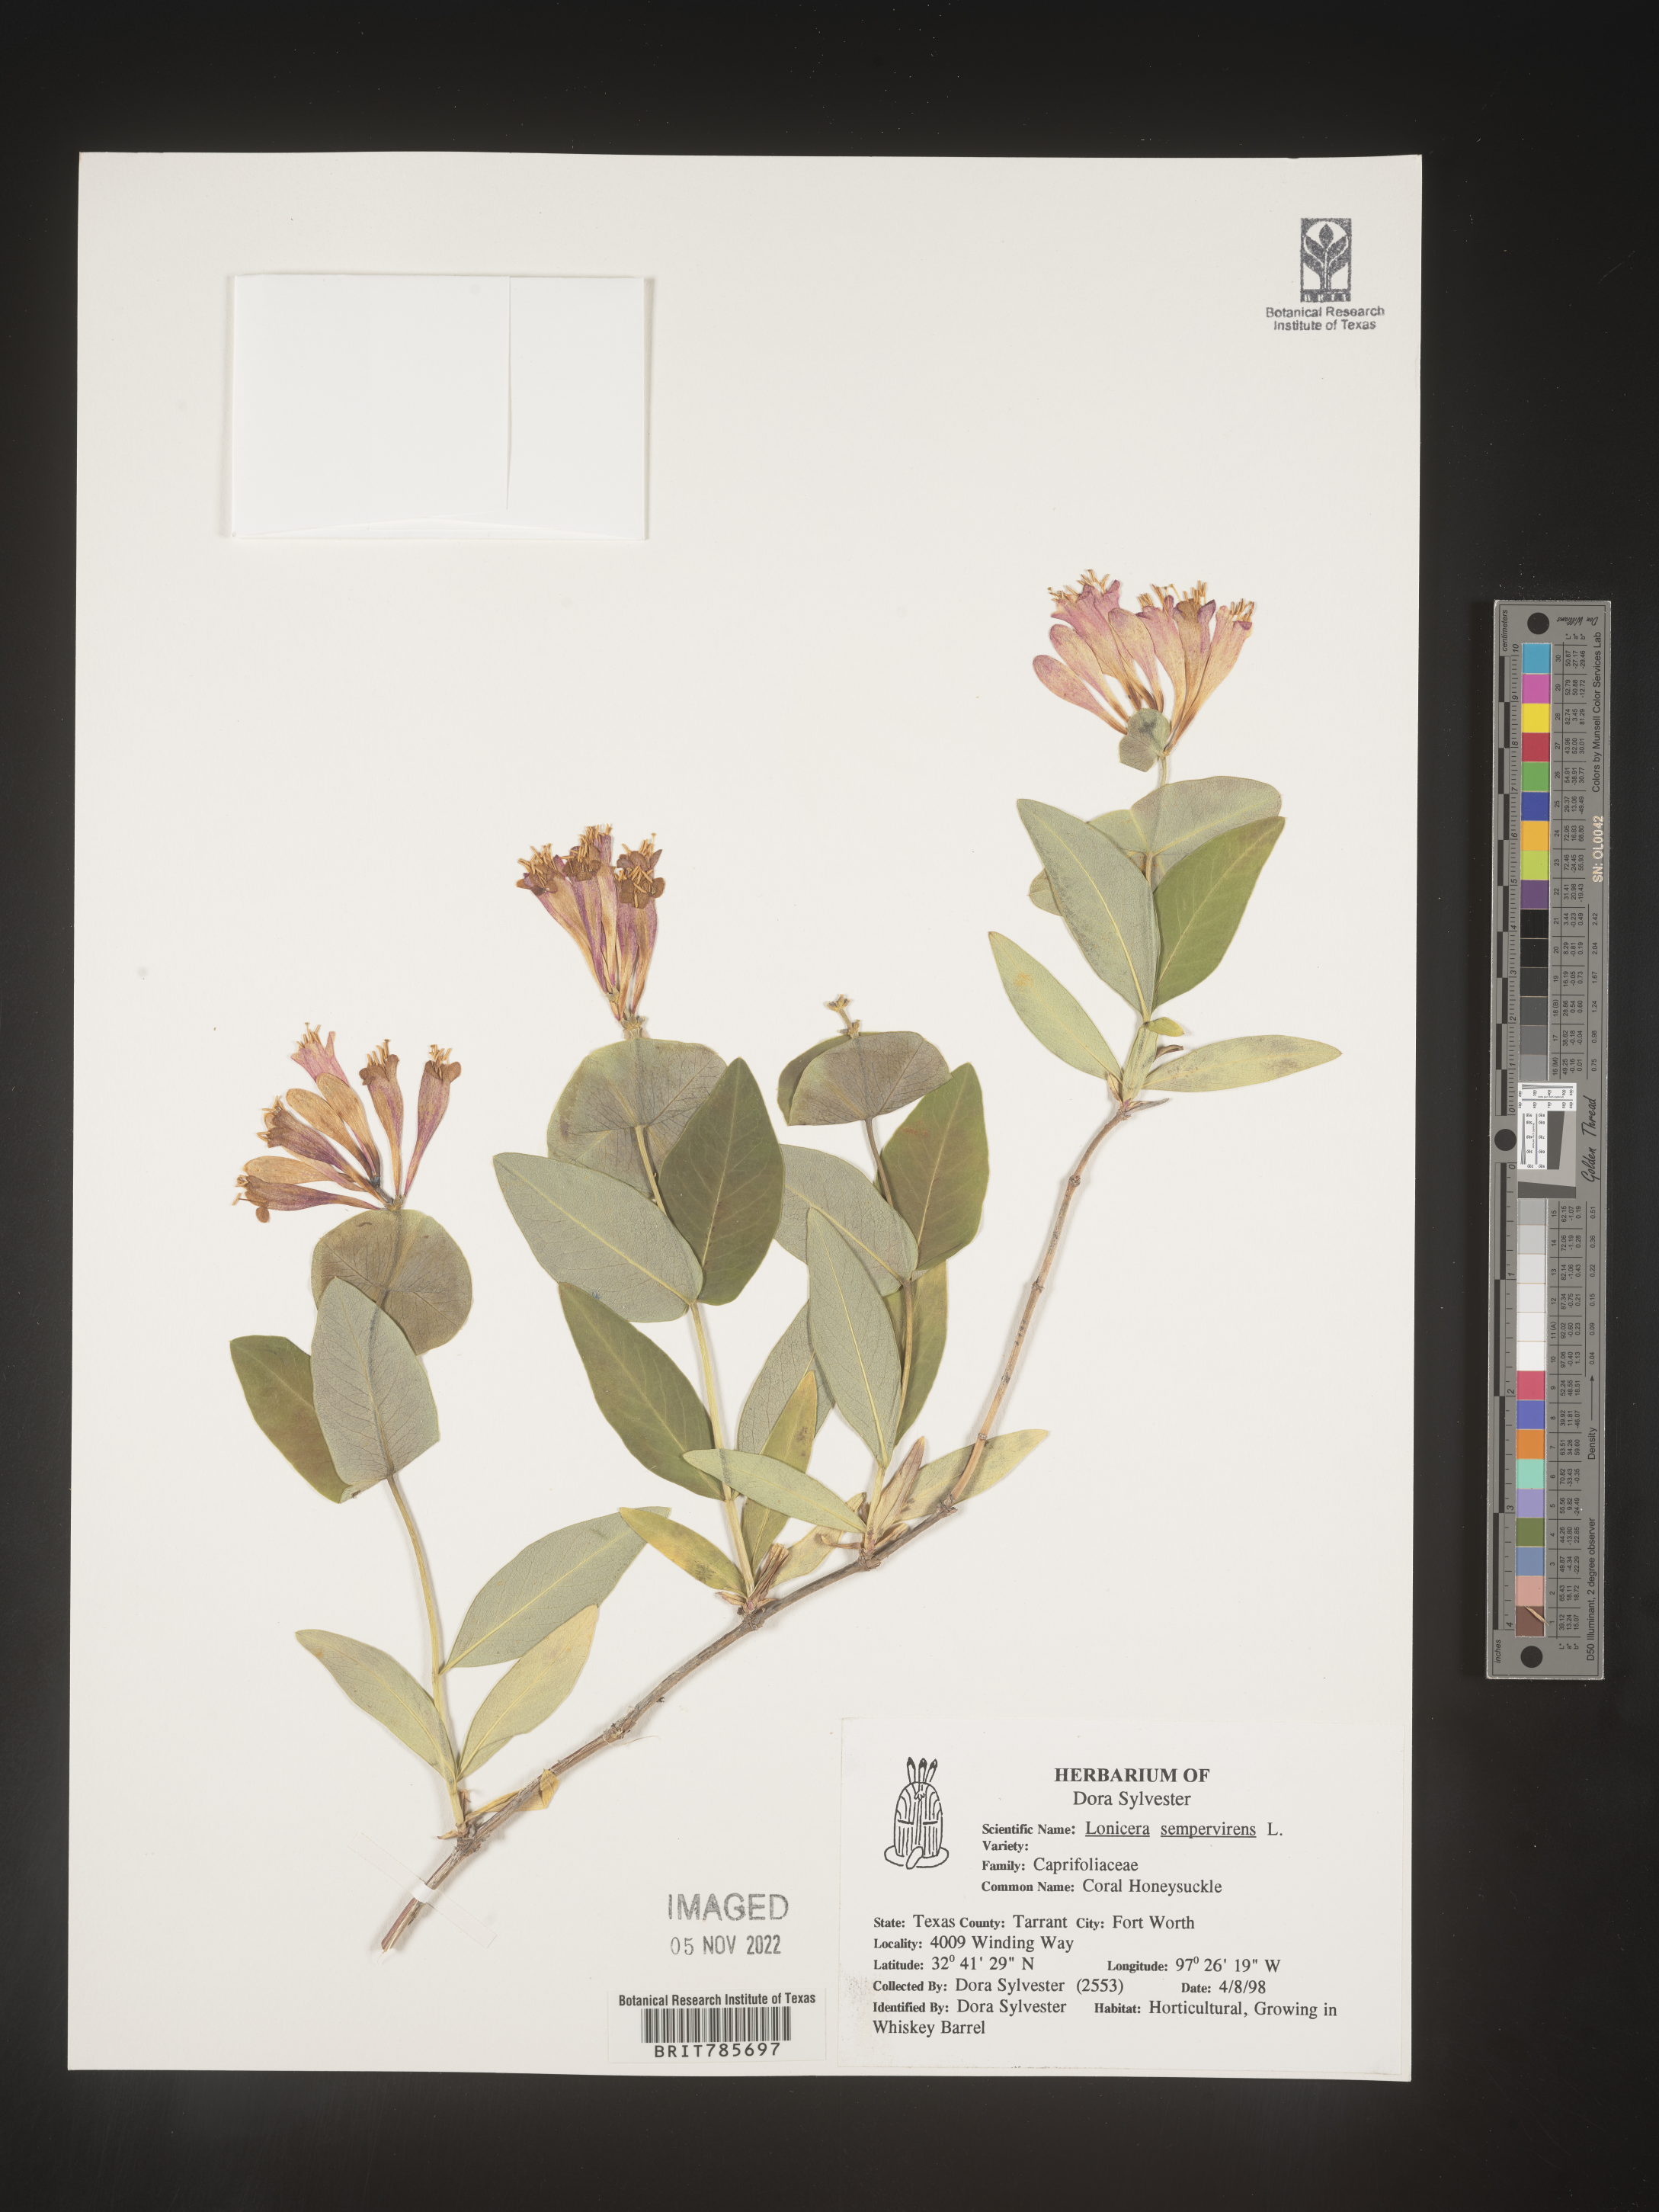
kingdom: Plantae
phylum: Tracheophyta
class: Magnoliopsida
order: Dipsacales
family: Caprifoliaceae
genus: Lonicera
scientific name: Lonicera
